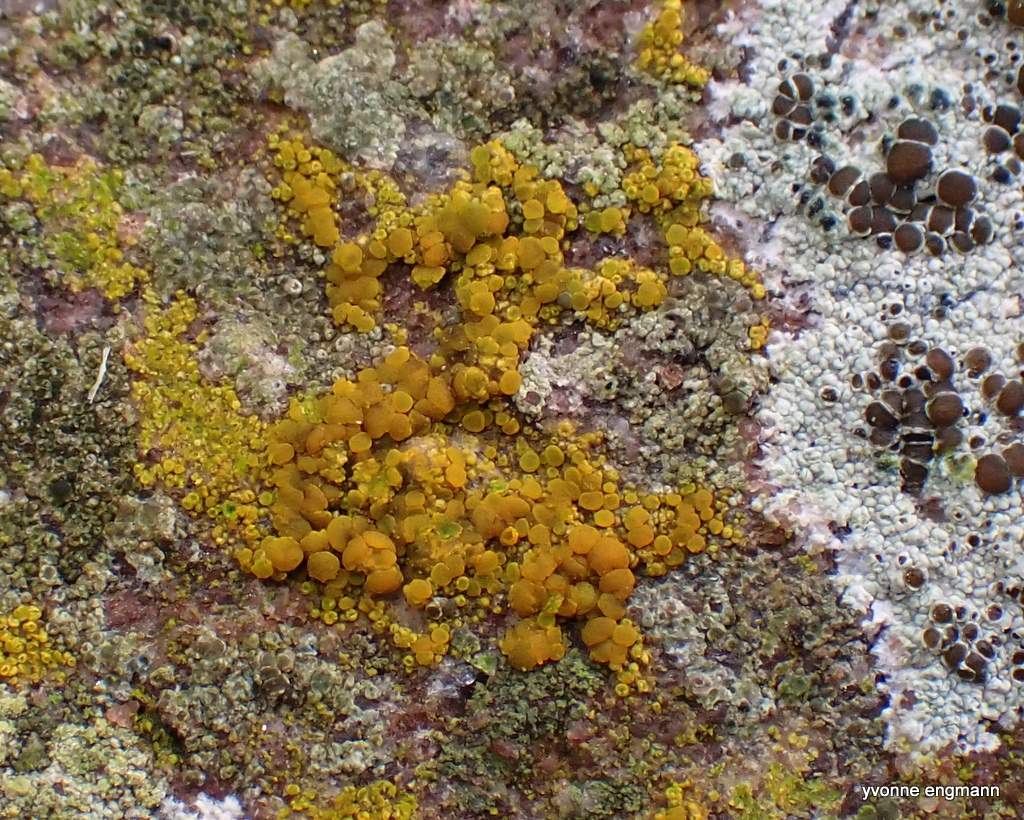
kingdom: Fungi
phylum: Ascomycota
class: Candelariomycetes
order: Candelariales
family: Candelariaceae
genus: Candelariella
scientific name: Candelariella vitellina
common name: almindelig æggeblommelav
